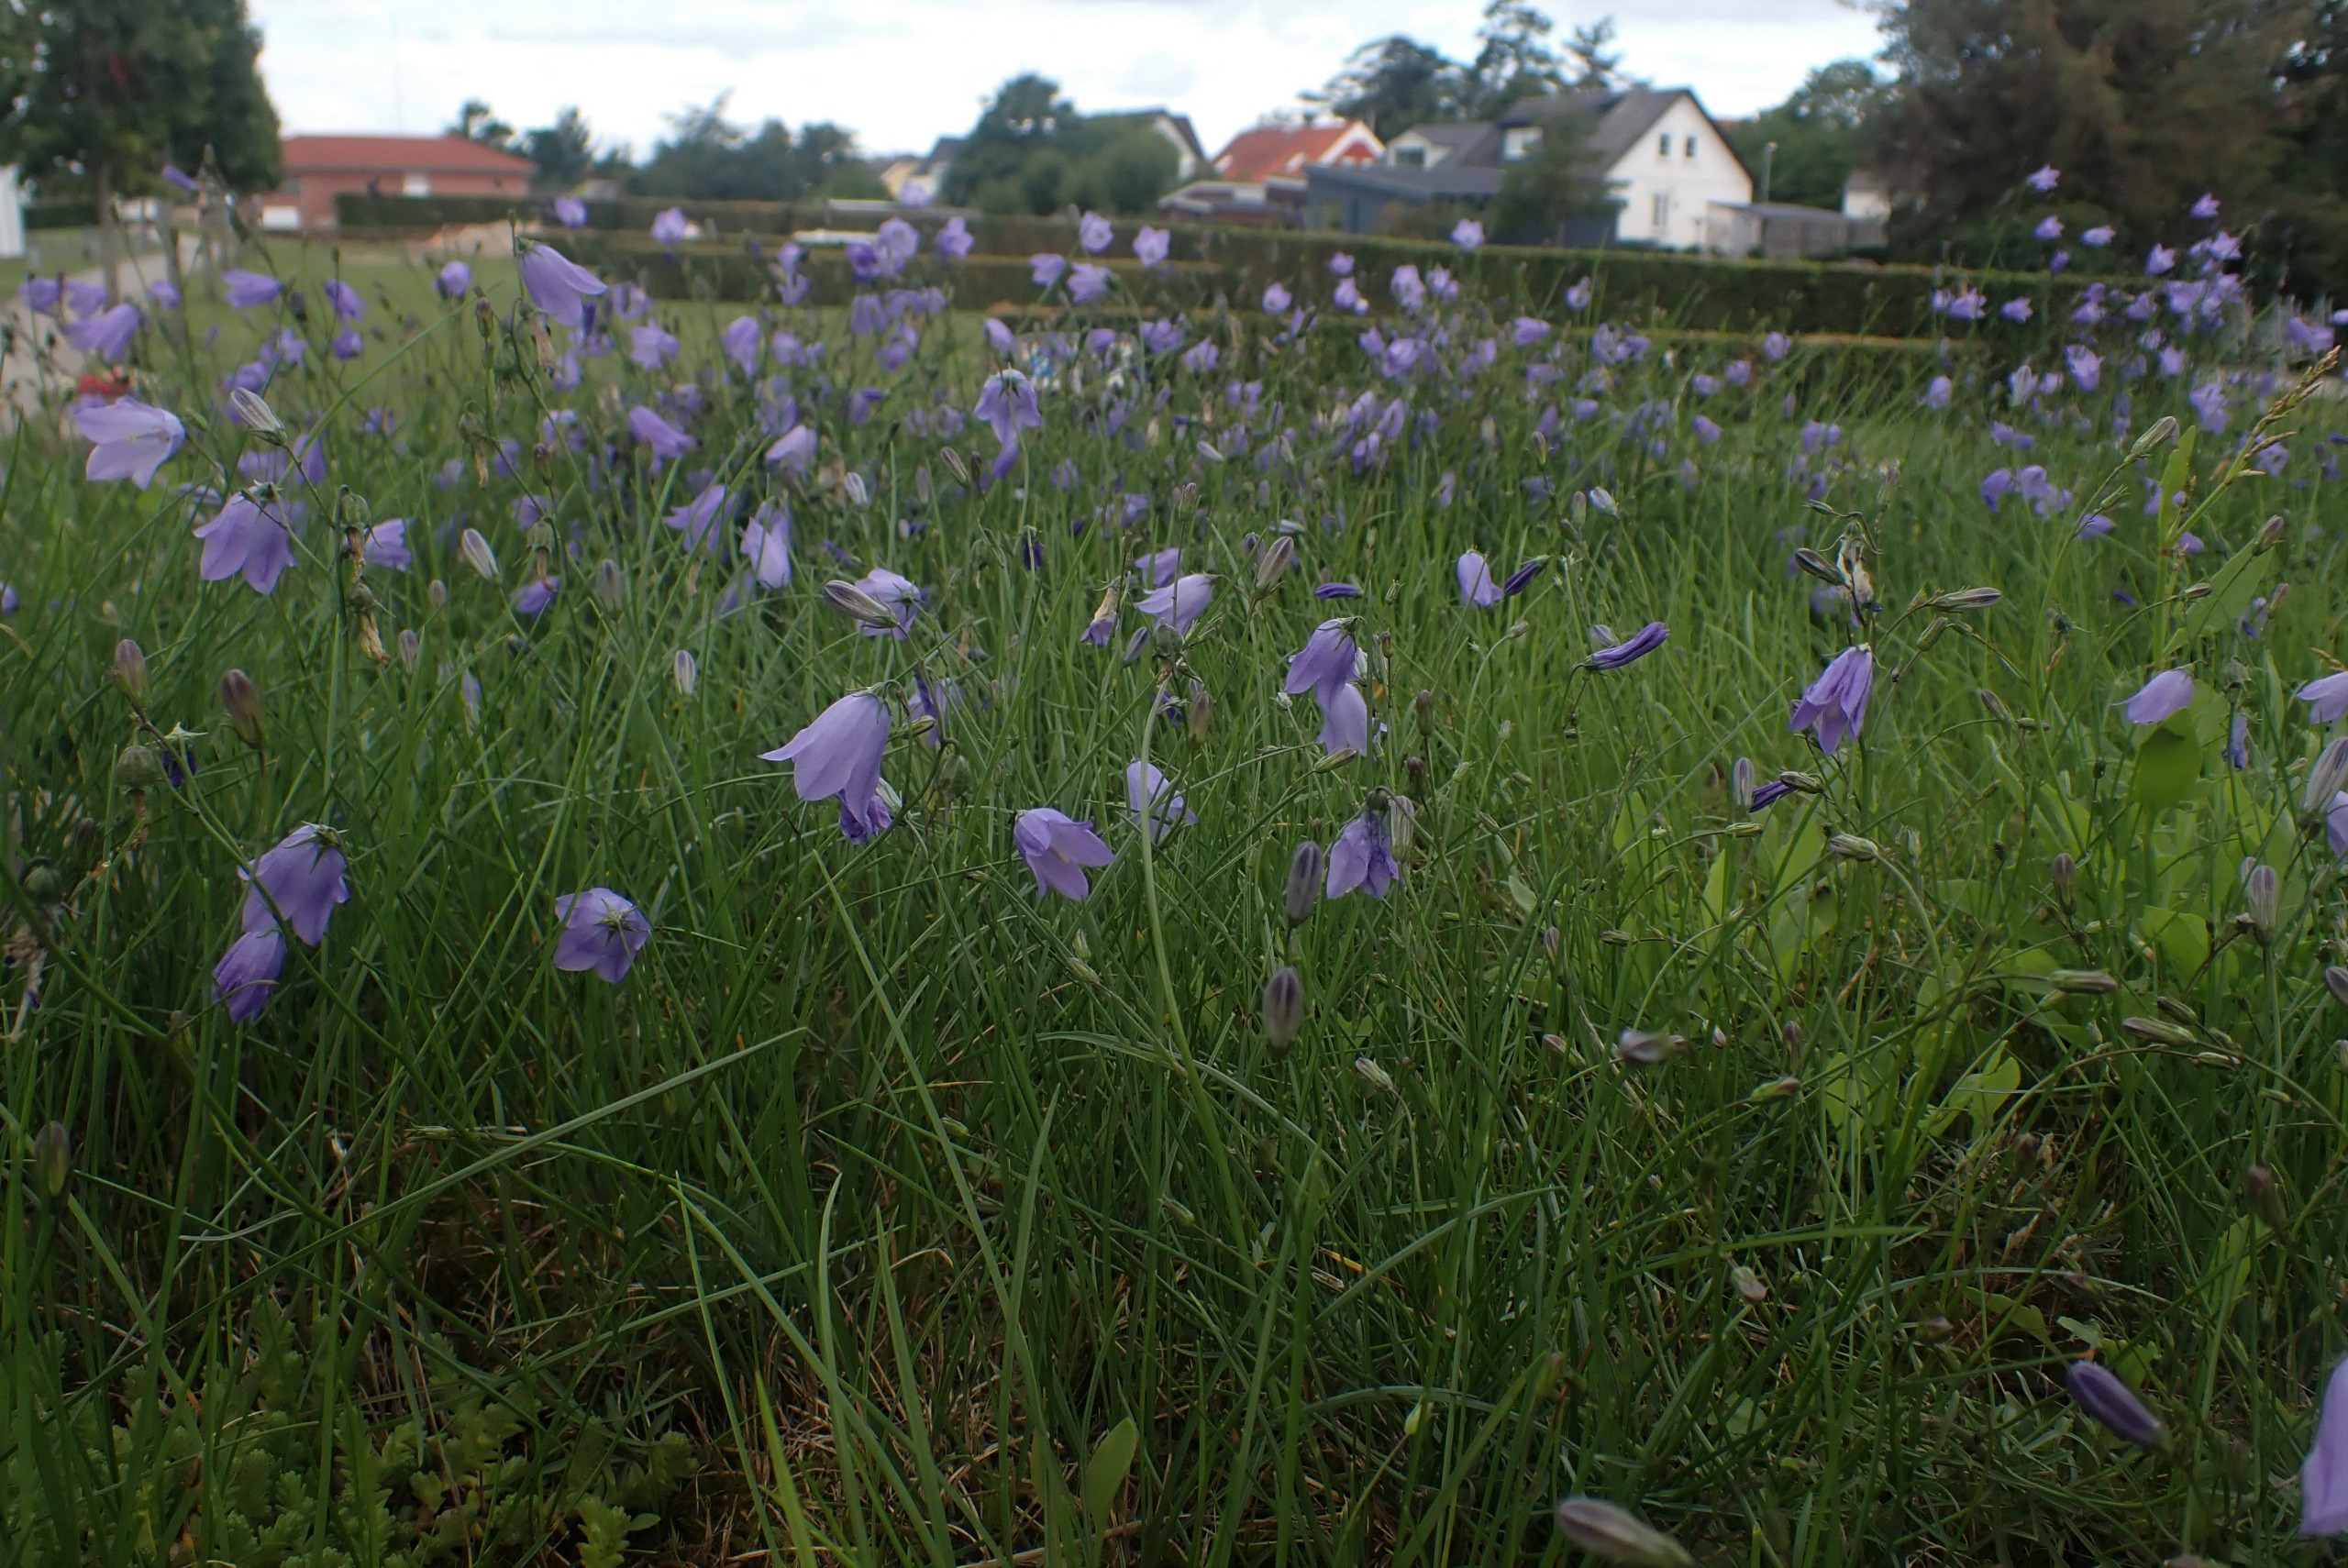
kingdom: Plantae
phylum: Tracheophyta
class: Magnoliopsida
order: Asterales
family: Campanulaceae
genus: Campanula
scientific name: Campanula rotundifolia
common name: Liden klokke
